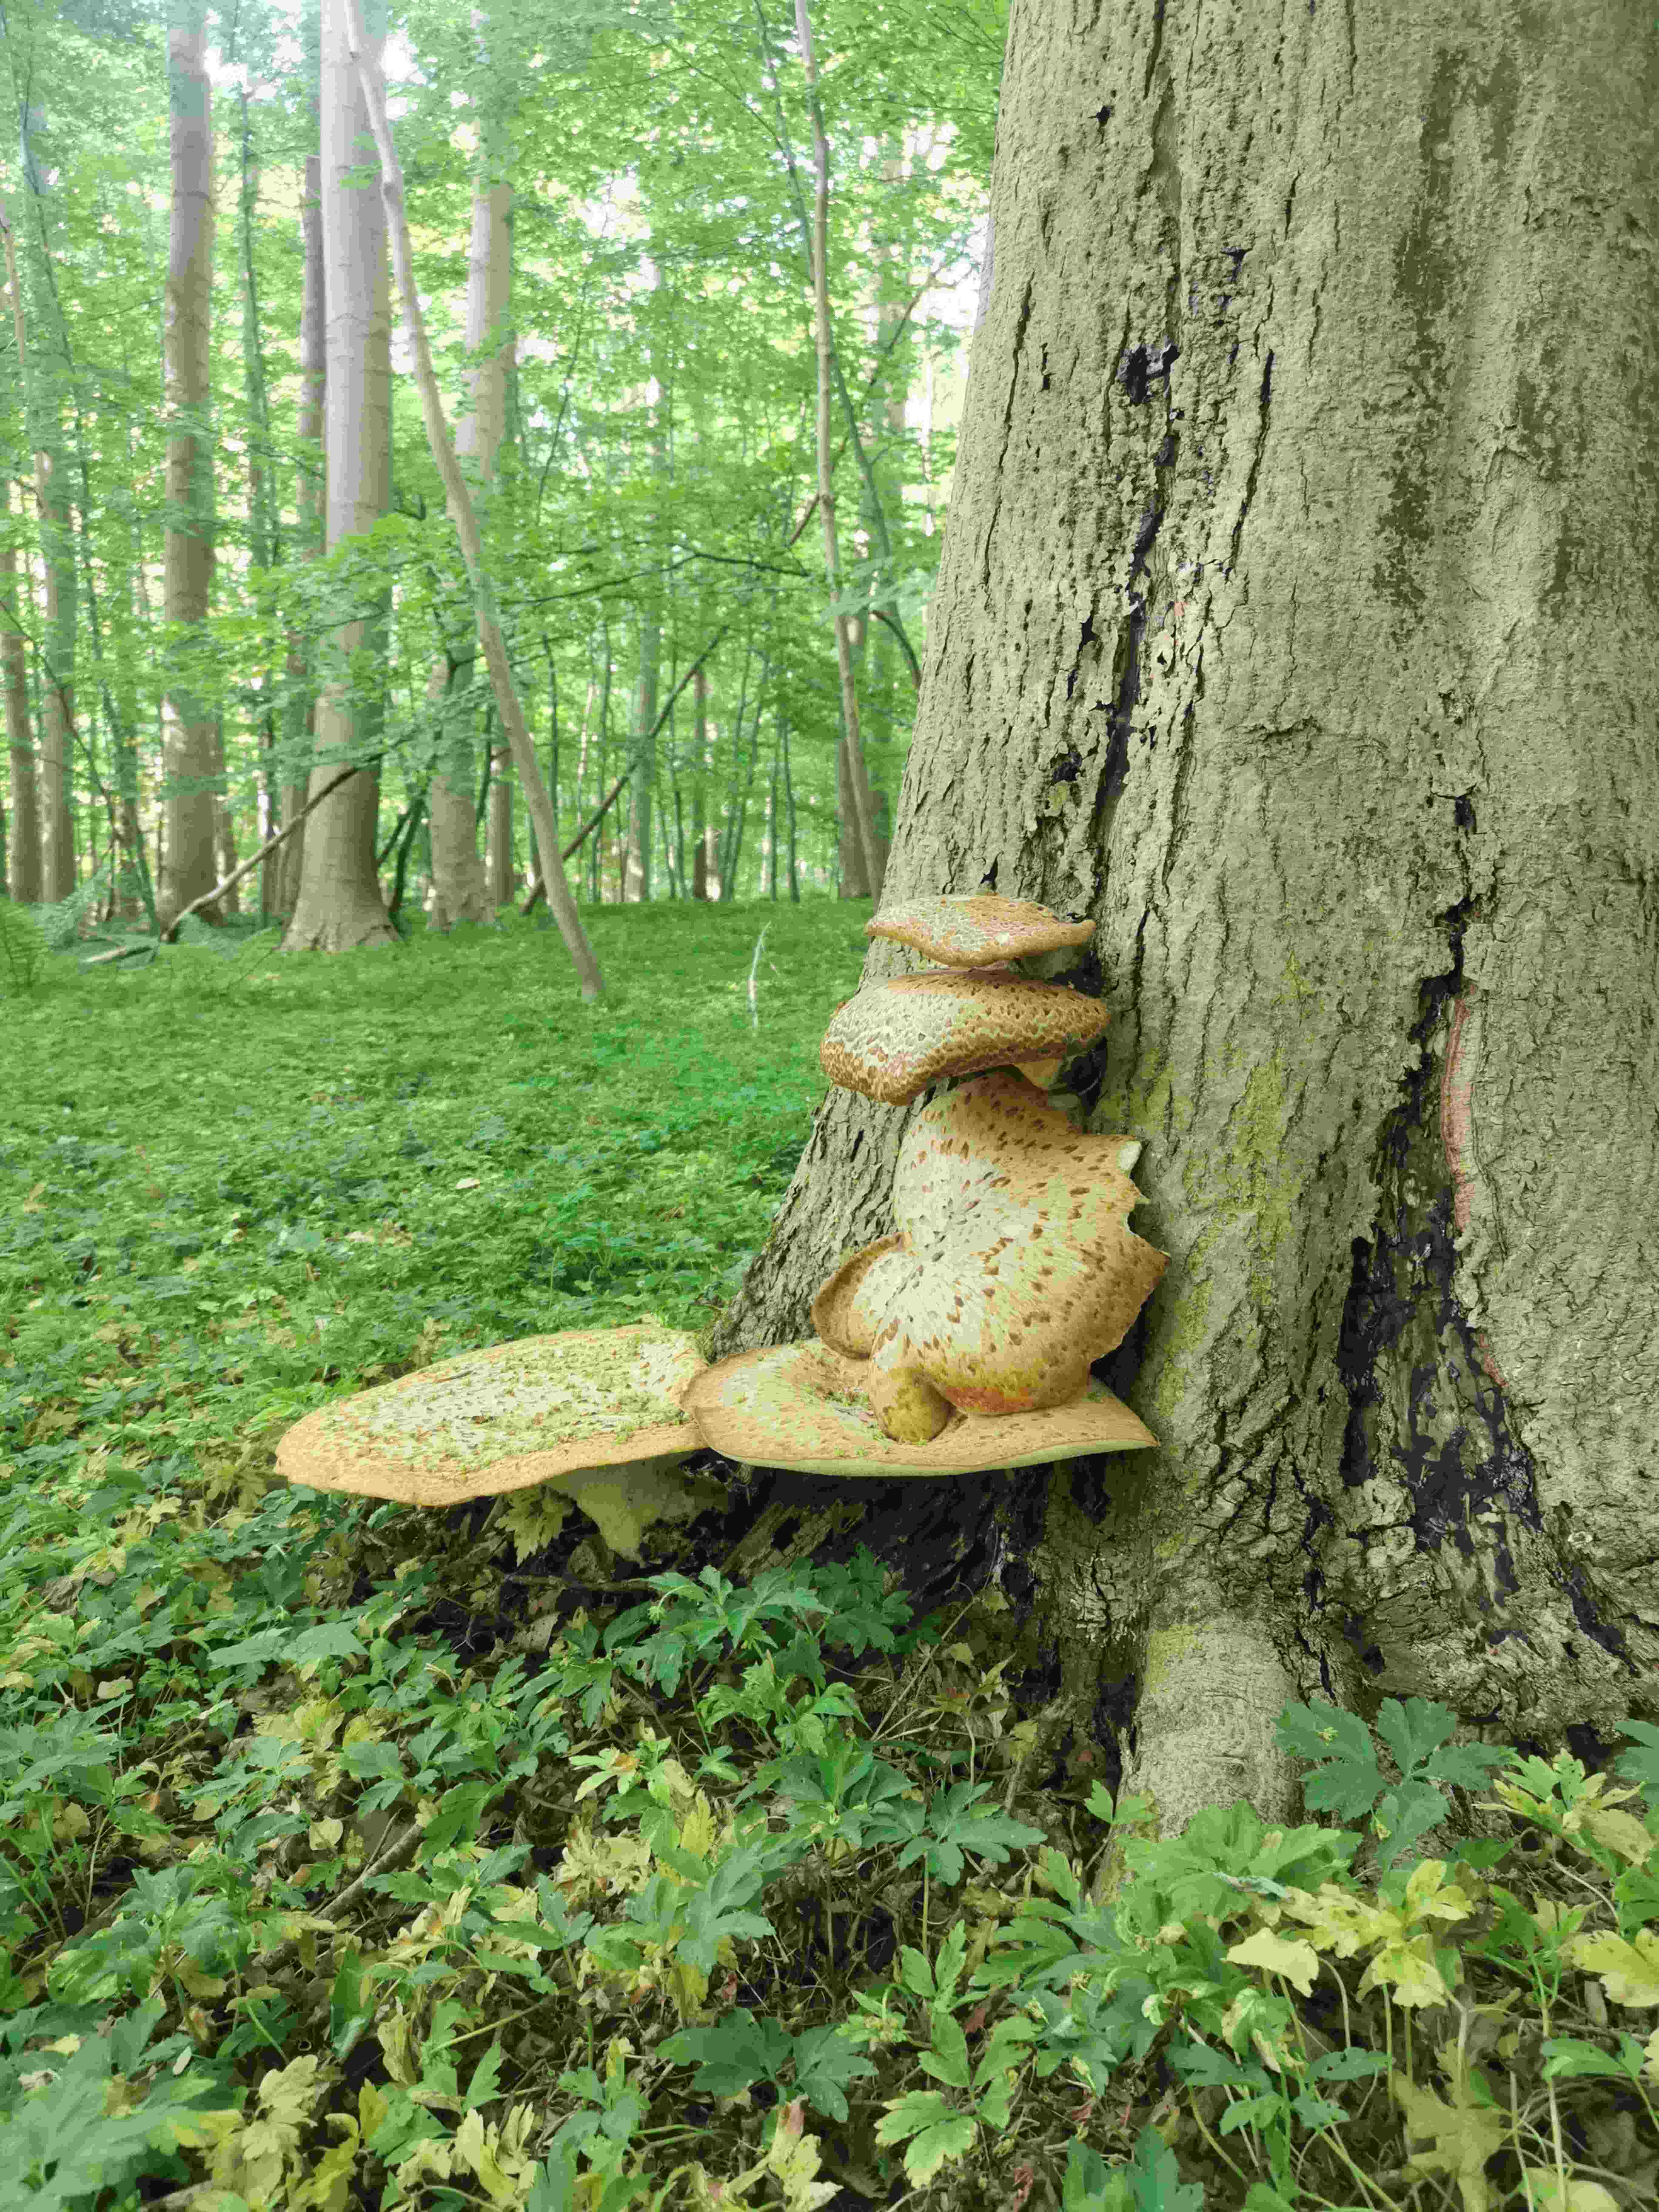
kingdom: Fungi
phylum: Basidiomycota
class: Agaricomycetes
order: Polyporales
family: Polyporaceae
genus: Cerioporus
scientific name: Cerioporus squamosus
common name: skællet stilkporesvamp
